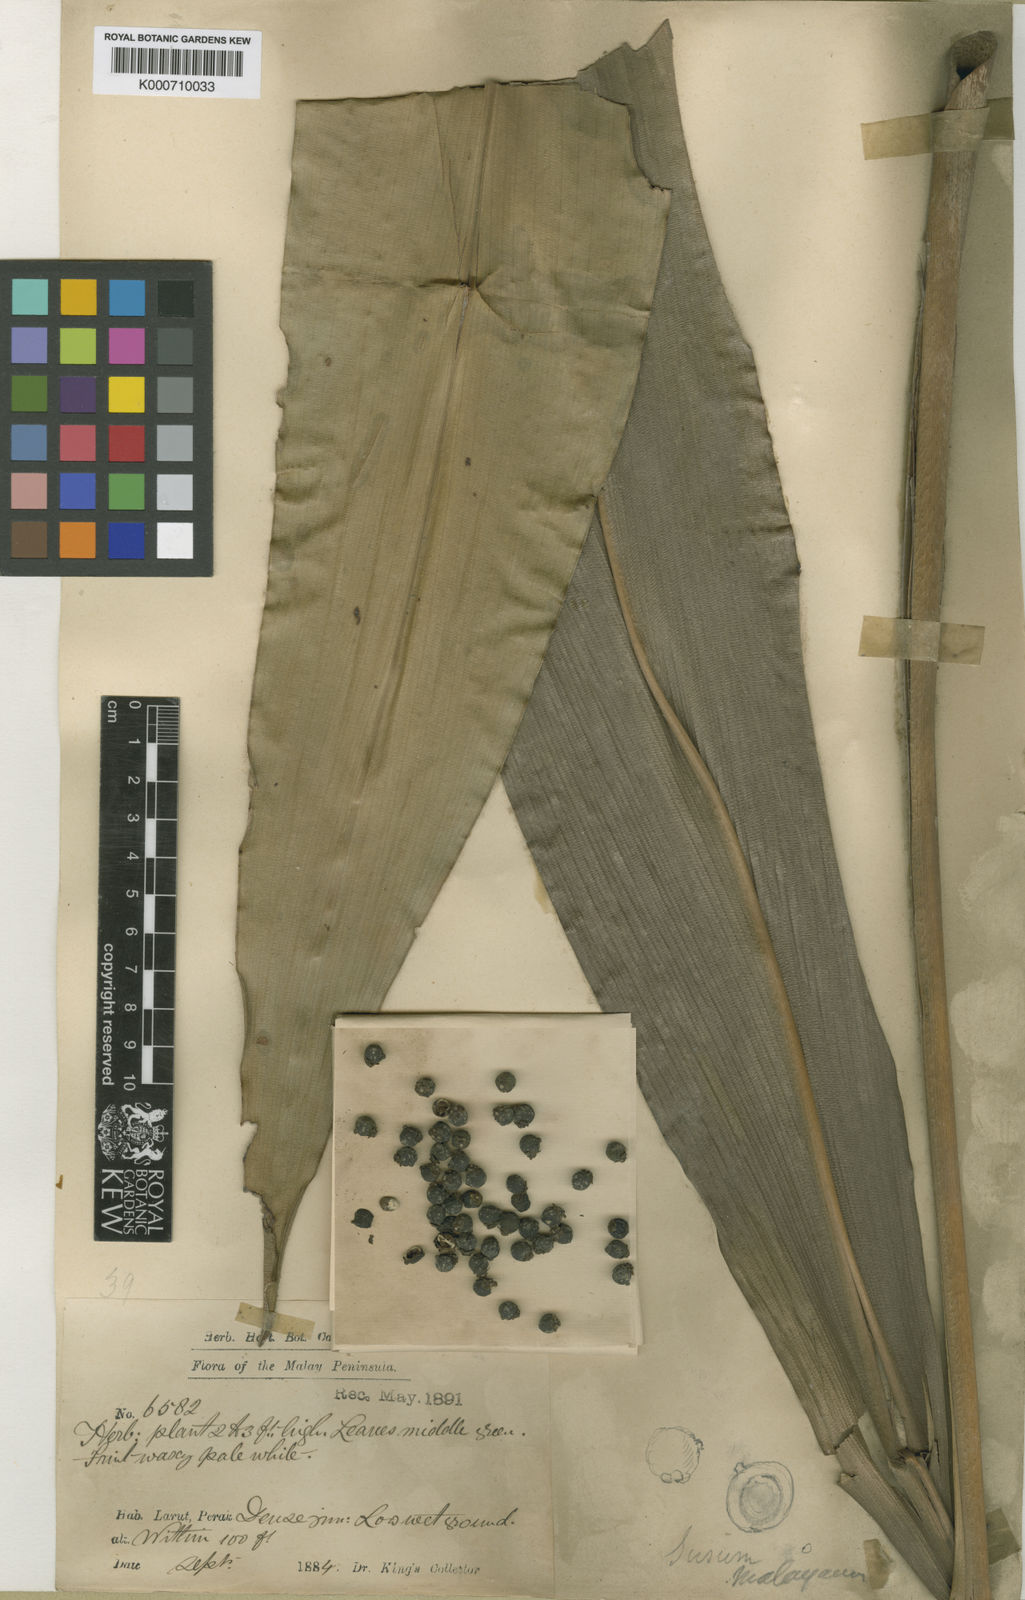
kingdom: Plantae
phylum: Tracheophyta
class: Liliopsida
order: Commelinales
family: Hanguanaceae
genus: Hanguana
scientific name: Hanguana malayana
